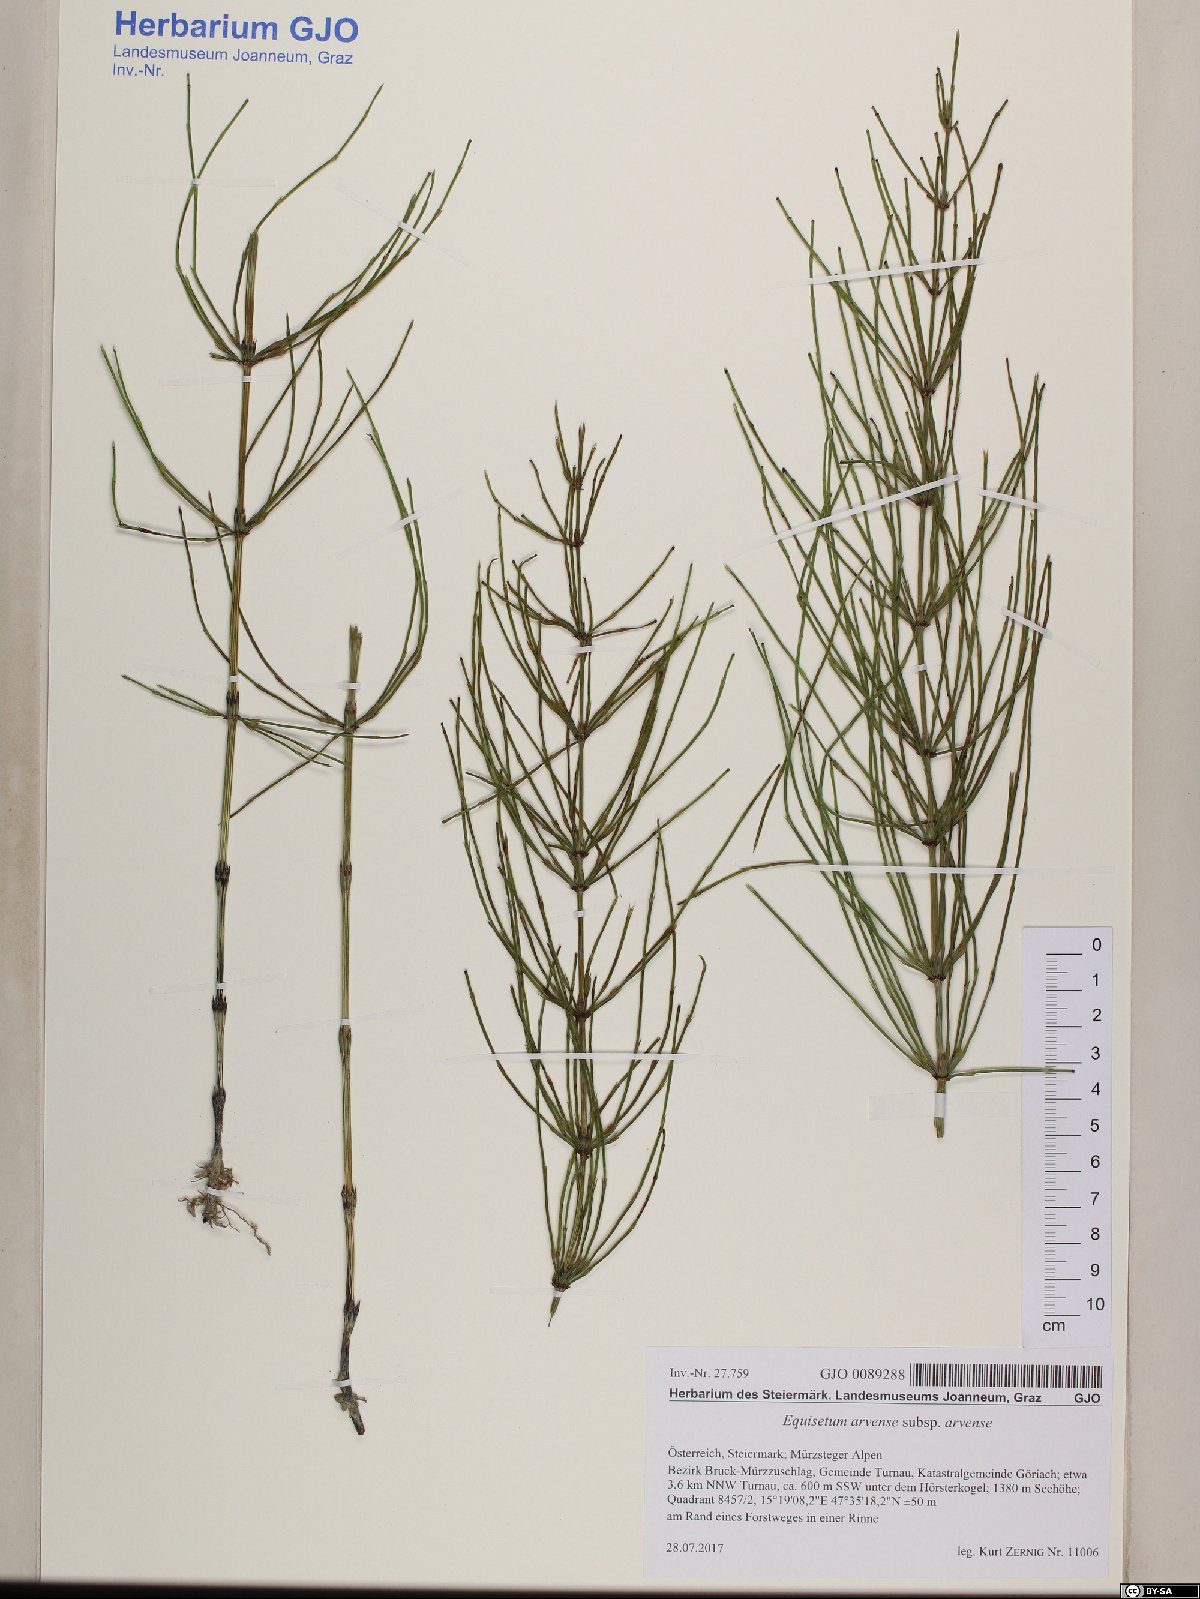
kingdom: Plantae
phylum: Tracheophyta
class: Polypodiopsida
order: Equisetales
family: Equisetaceae
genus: Equisetum
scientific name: Equisetum arvense
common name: Field horsetail
